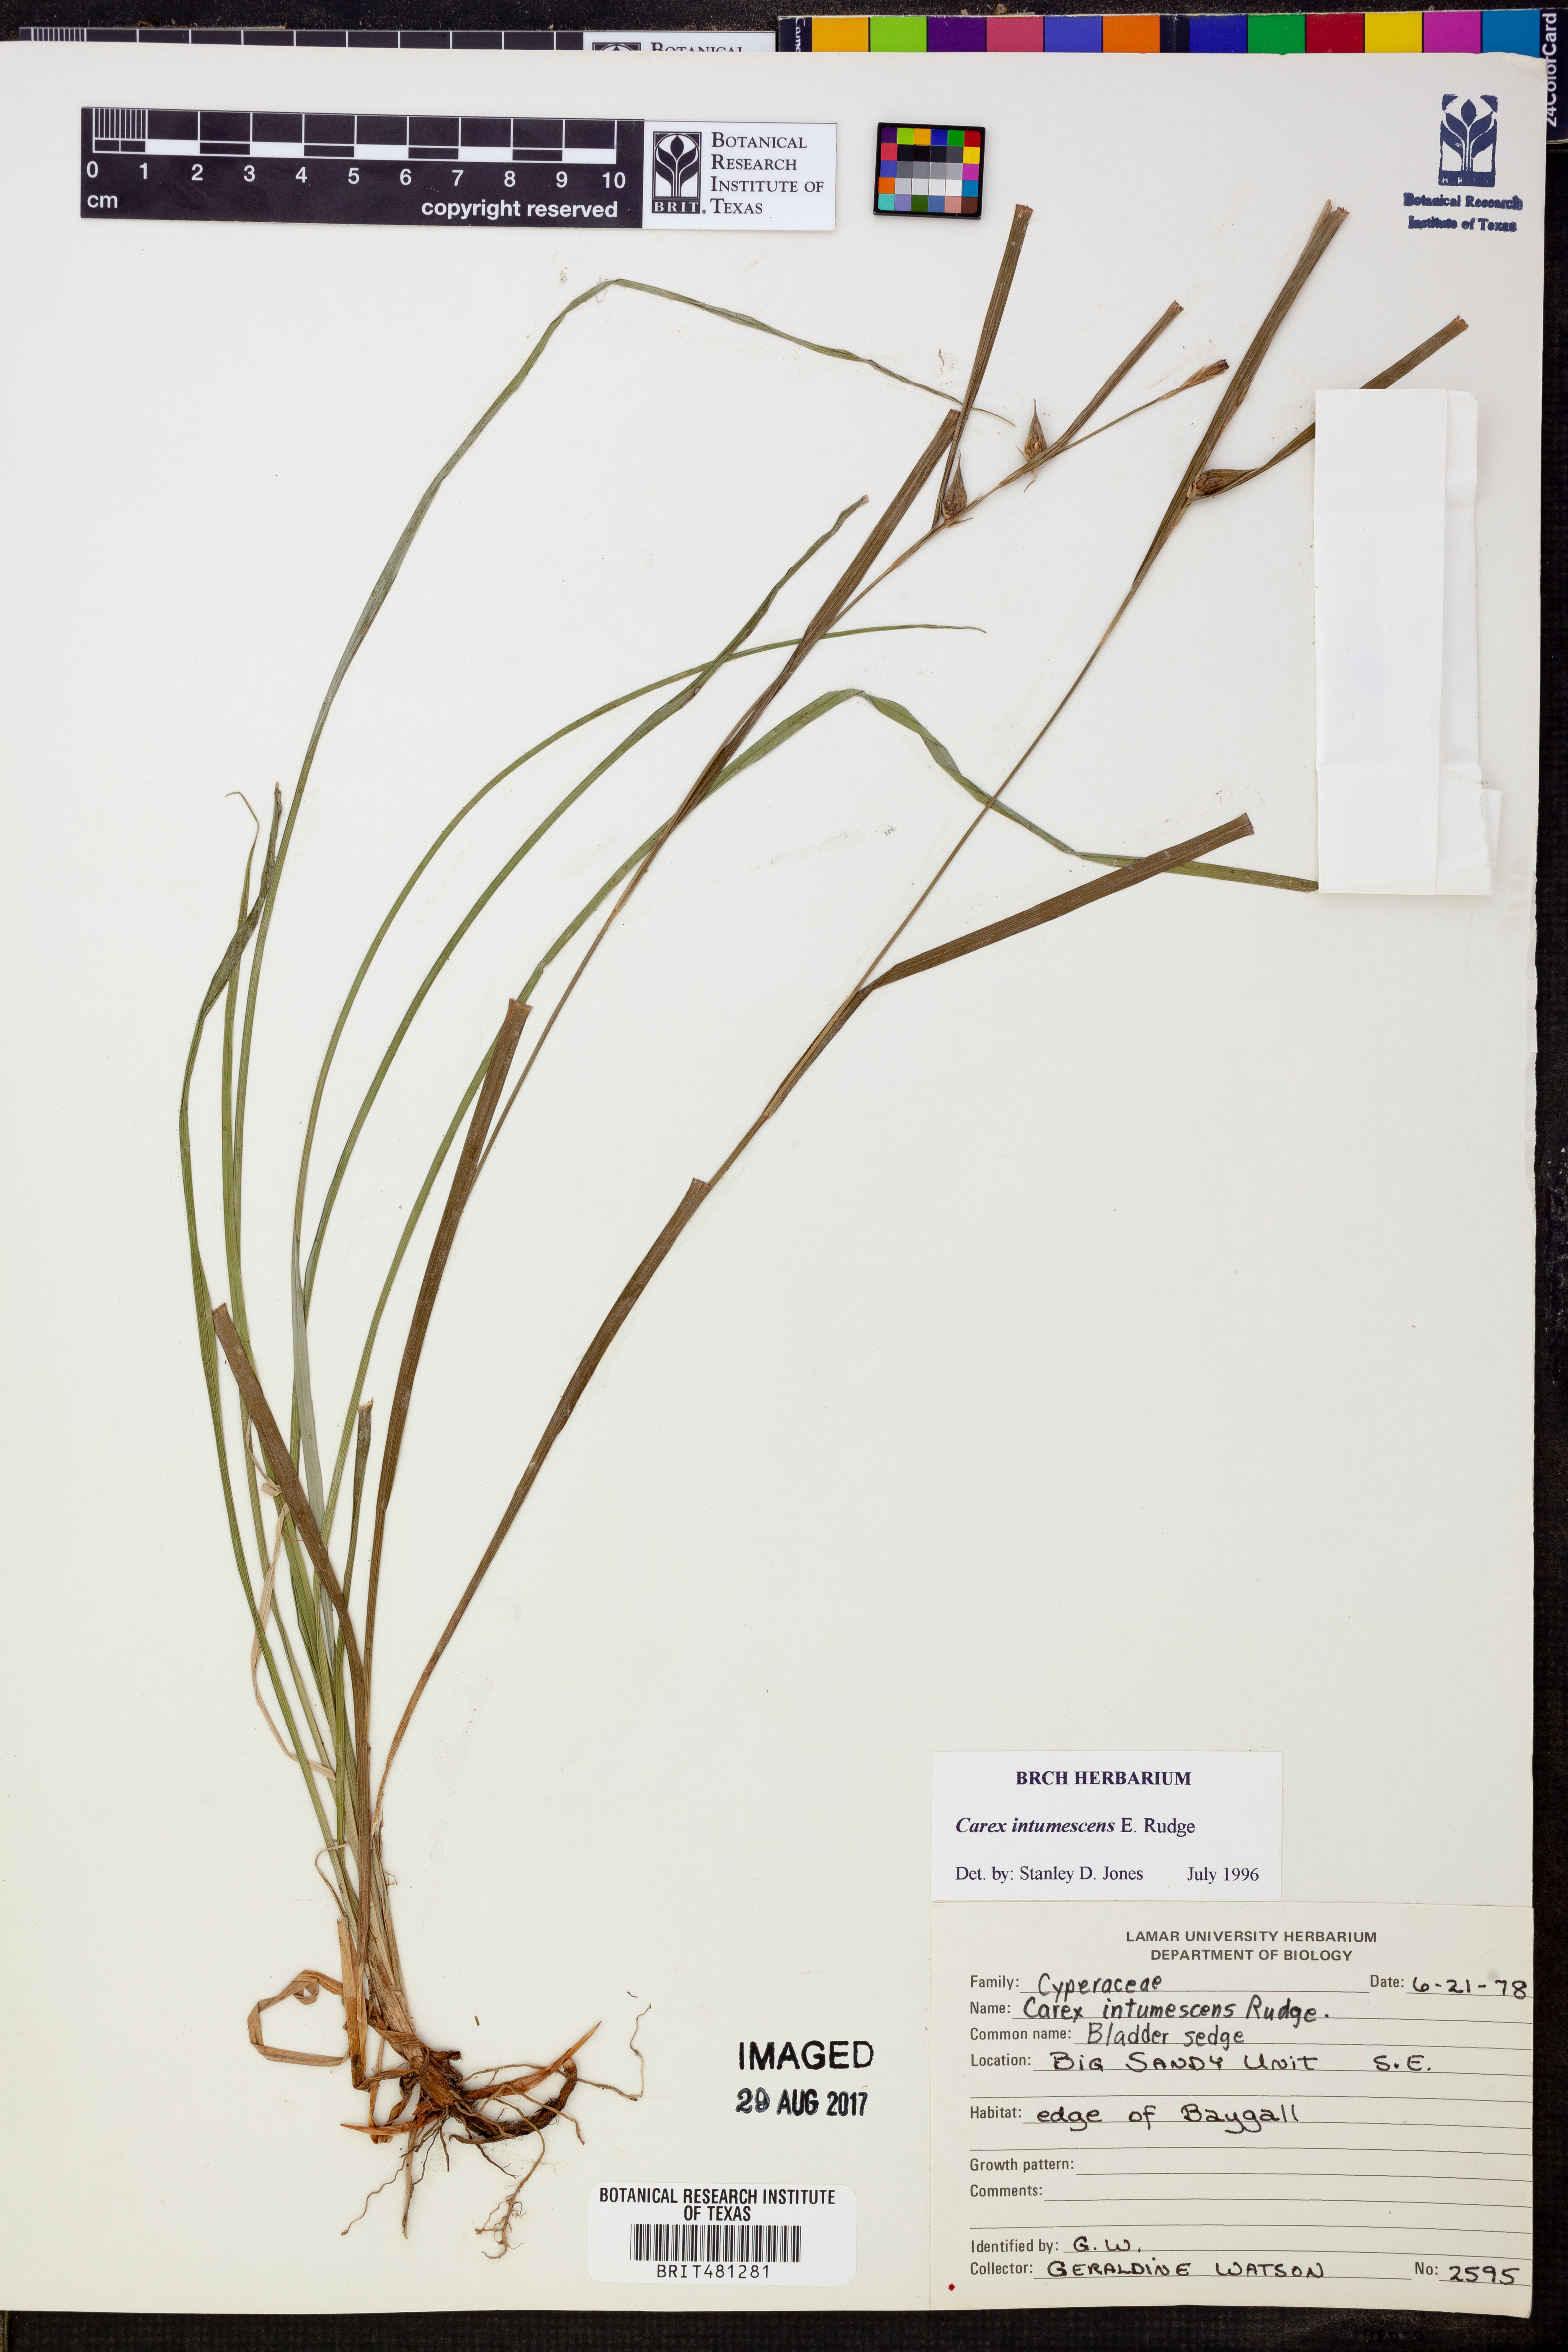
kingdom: Plantae
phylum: Tracheophyta
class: Liliopsida
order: Poales
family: Cyperaceae
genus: Carex
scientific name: Carex intumescens
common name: Greater bladder sedge
